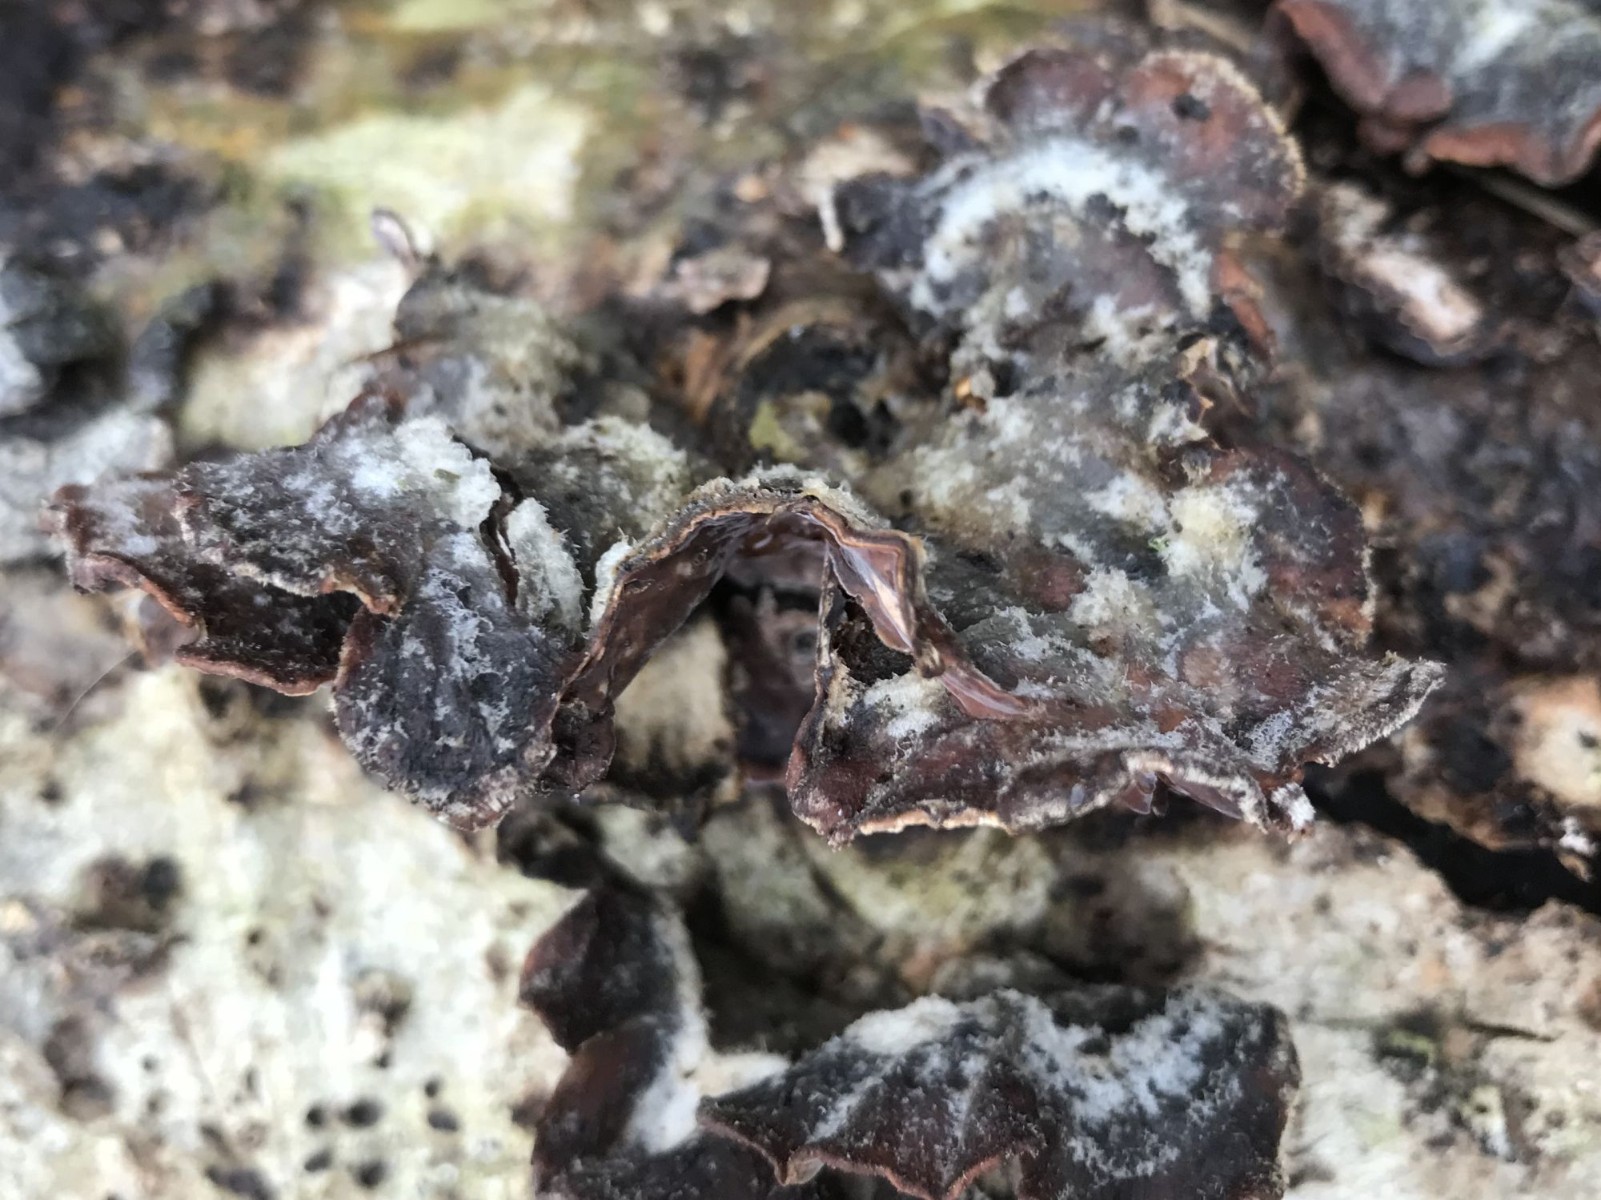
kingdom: Fungi
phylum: Basidiomycota
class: Agaricomycetes
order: Agaricales
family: Cyphellaceae
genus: Chondrostereum
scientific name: Chondrostereum purpureum
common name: purpurlædersvamp
